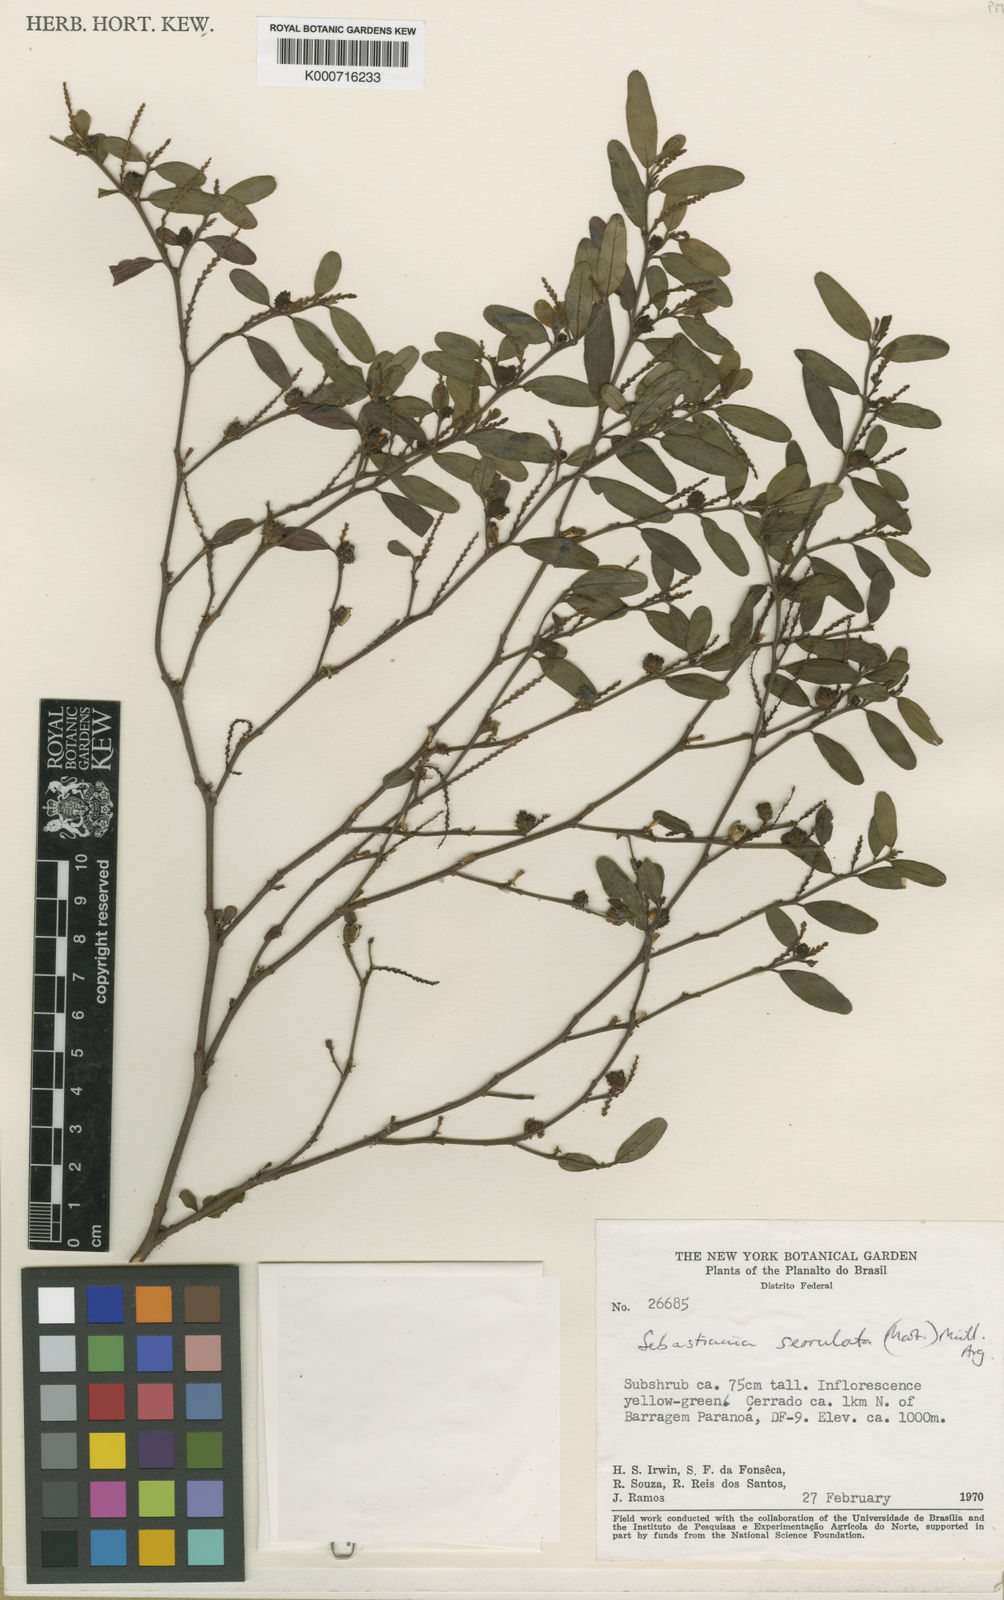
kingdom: Plantae
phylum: Tracheophyta
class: Magnoliopsida
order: Malpighiales
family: Euphorbiaceae
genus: Sebastiania
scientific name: Sebastiania
